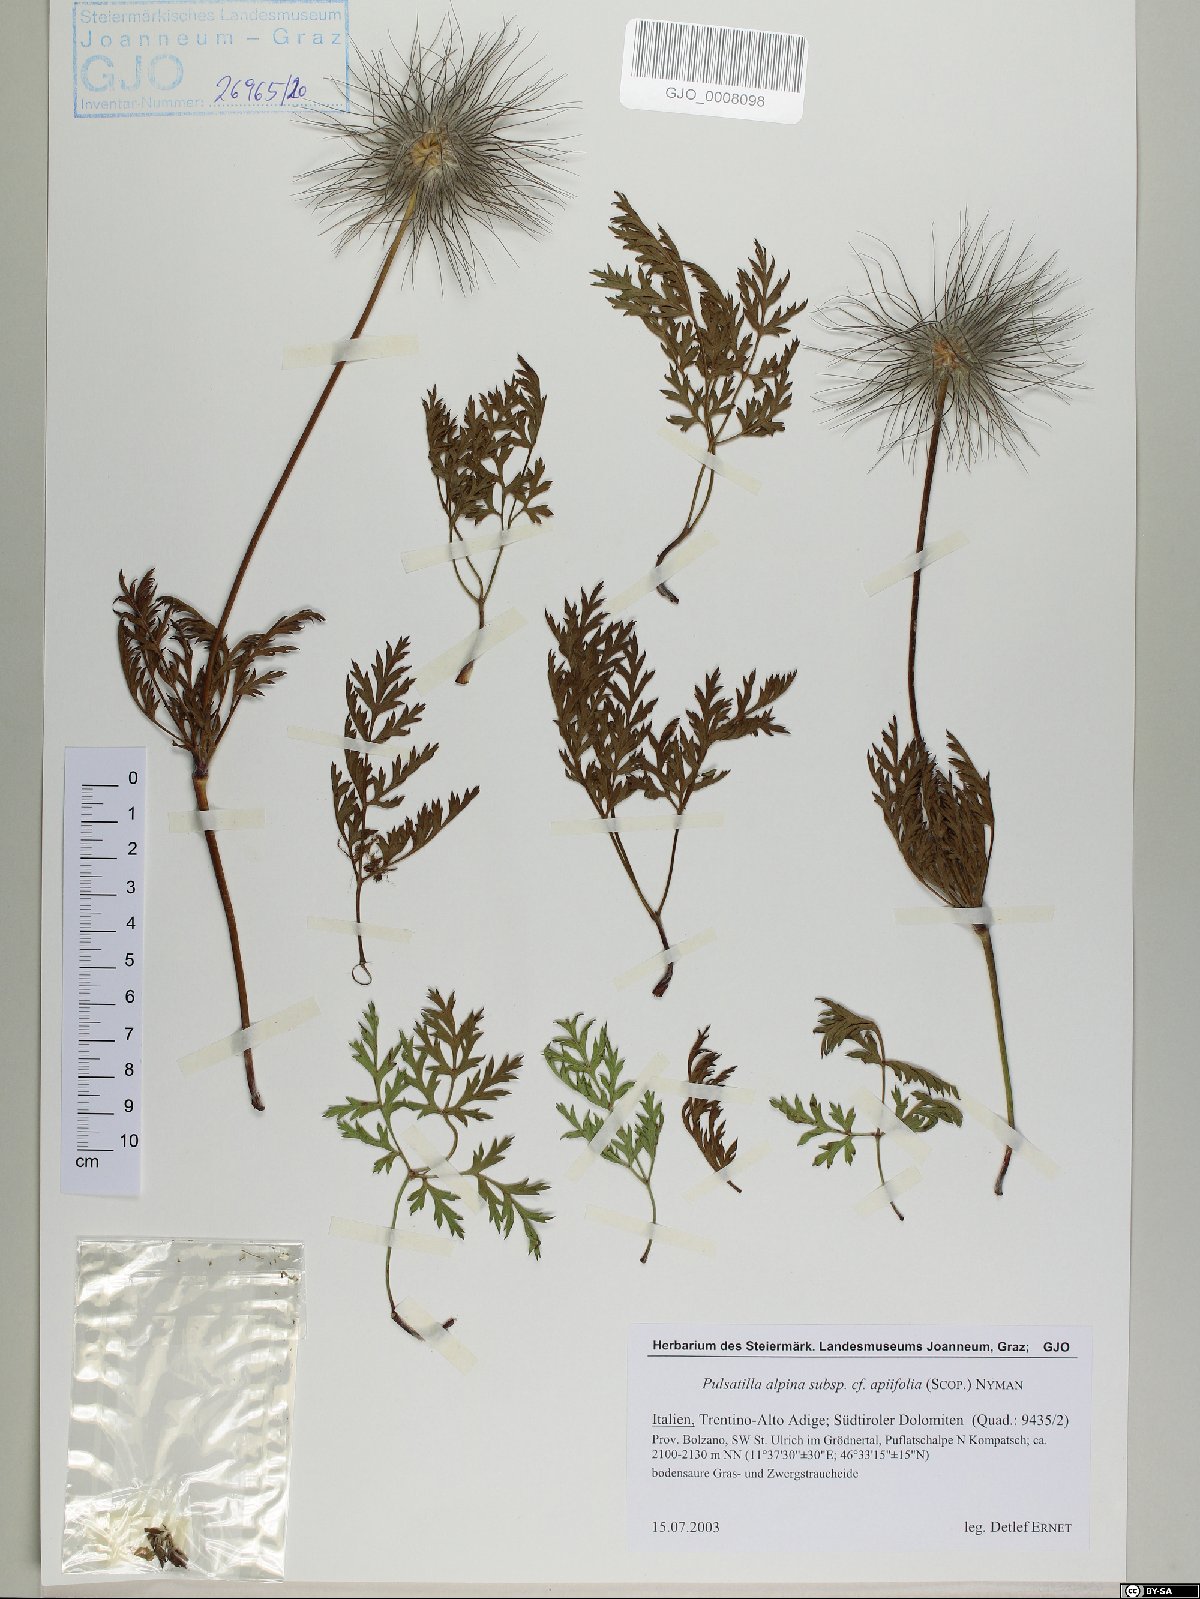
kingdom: Plantae
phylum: Tracheophyta
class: Magnoliopsida
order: Ranunculales
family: Ranunculaceae
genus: Pulsatilla
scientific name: Pulsatilla alpina
